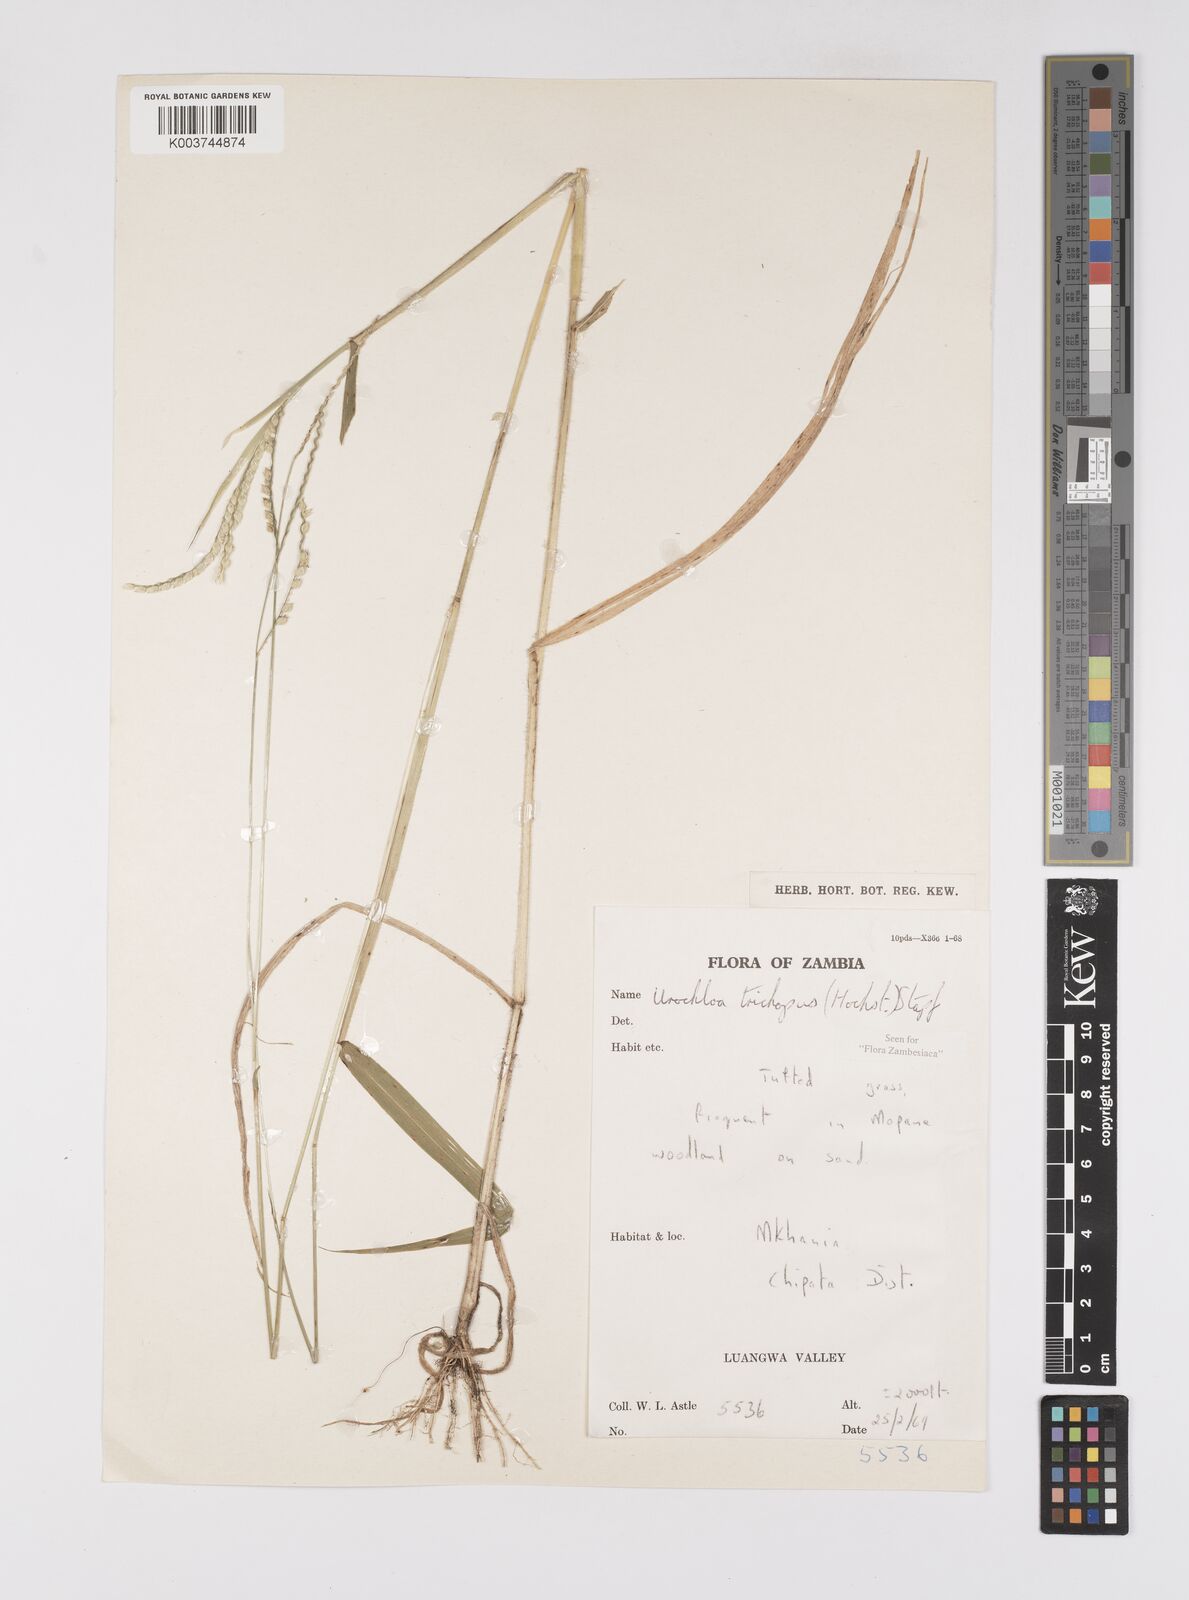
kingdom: Plantae
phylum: Tracheophyta
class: Liliopsida
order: Poales
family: Poaceae
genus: Urochloa
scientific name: Urochloa trichopus
